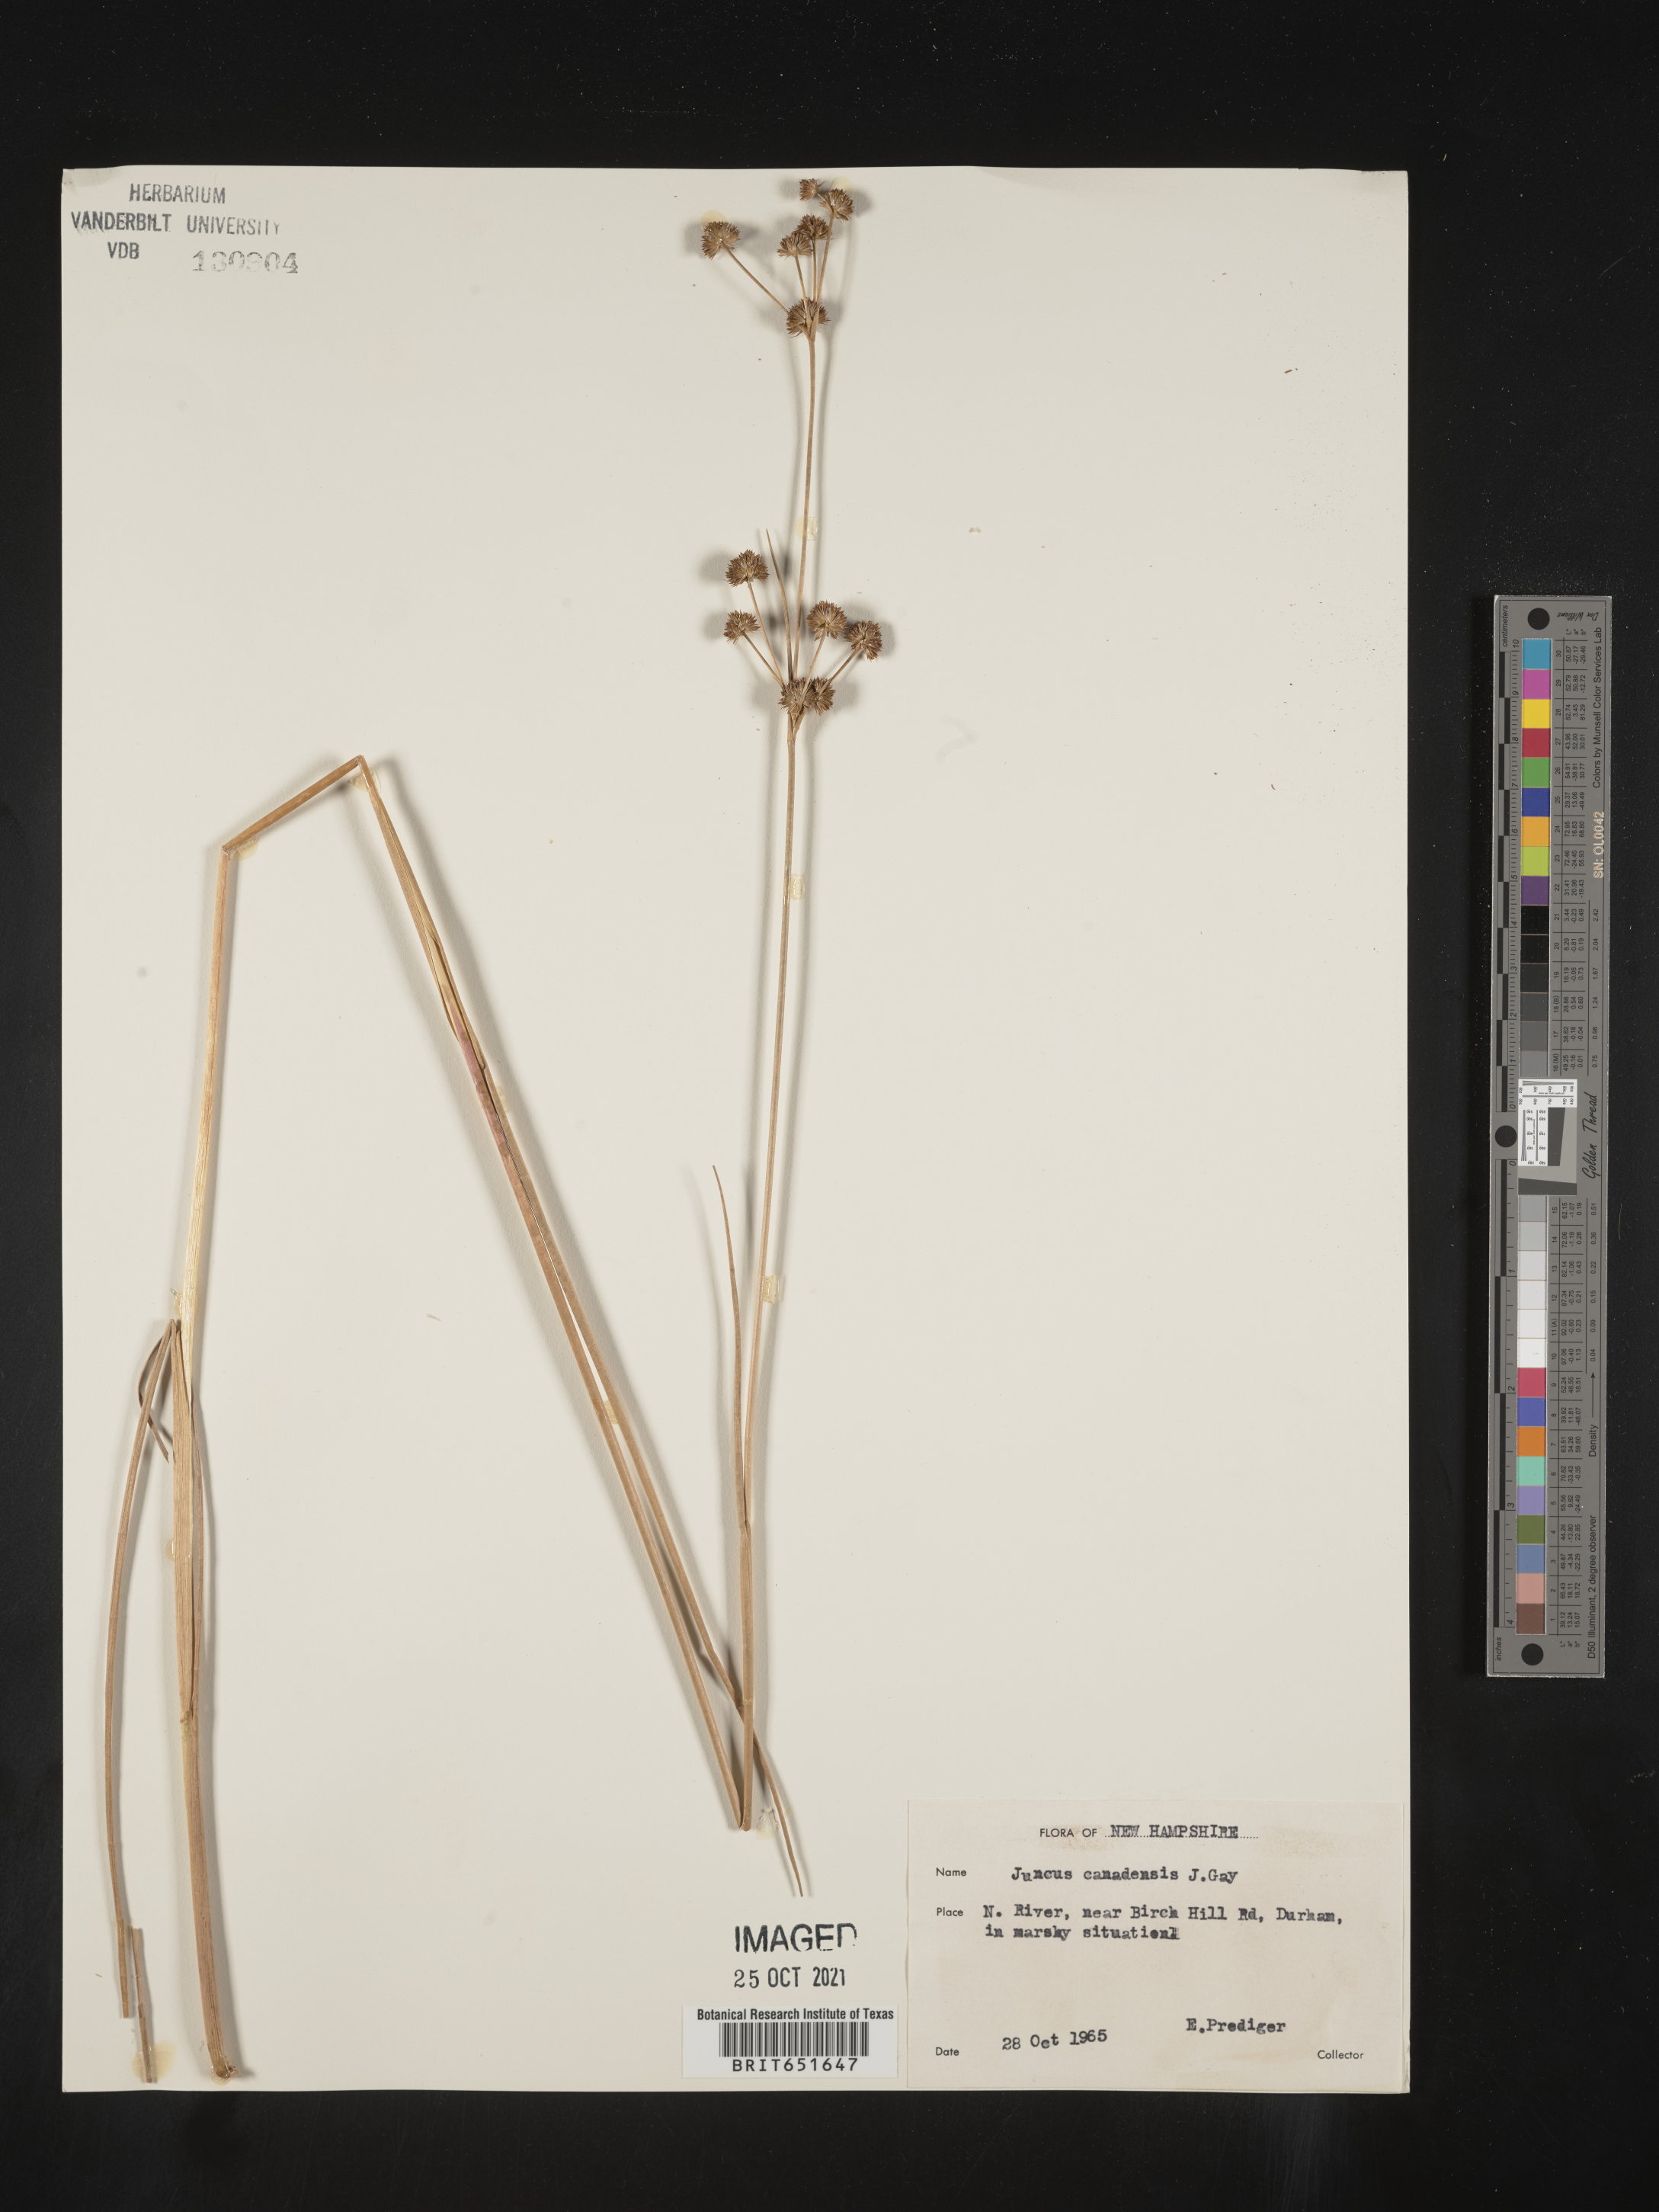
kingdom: Plantae
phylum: Tracheophyta
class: Liliopsida
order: Poales
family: Juncaceae
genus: Juncus
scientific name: Juncus canadensis
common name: Canada rush
